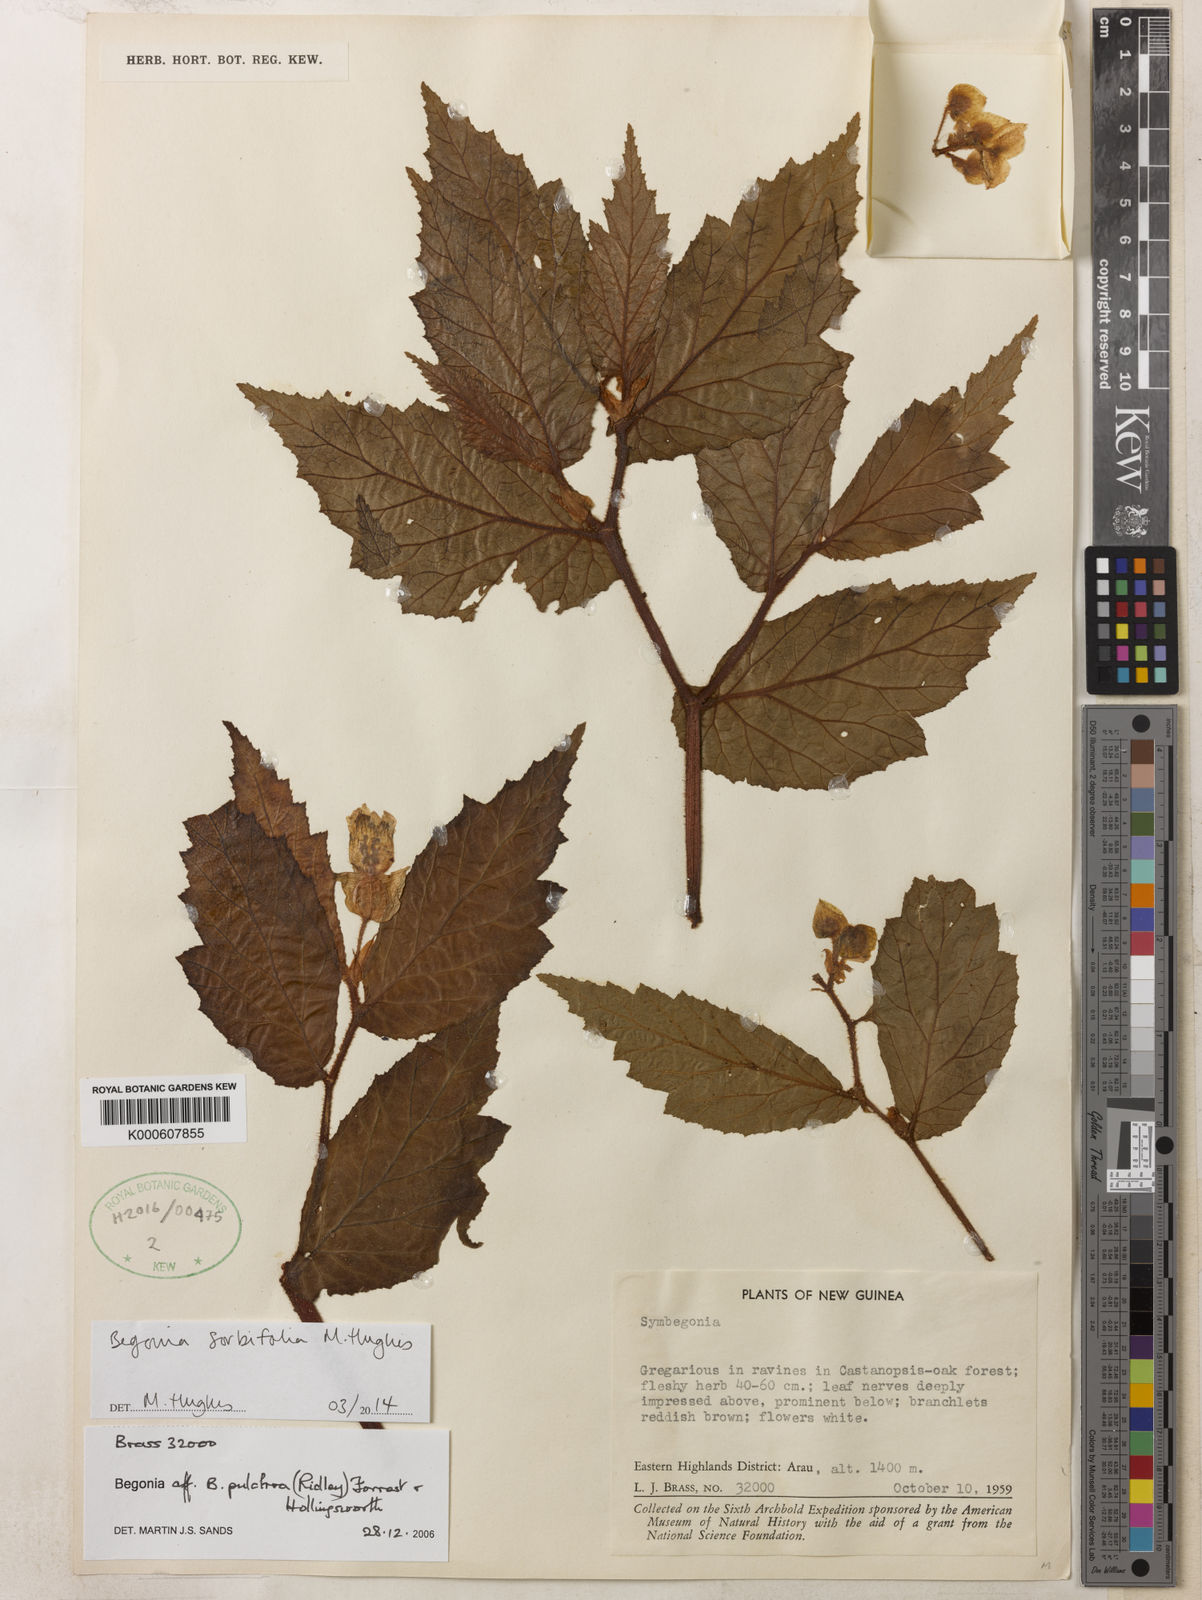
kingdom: Plantae
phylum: Tracheophyta
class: Magnoliopsida
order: Cucurbitales
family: Begoniaceae
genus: Begonia
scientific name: Begonia
